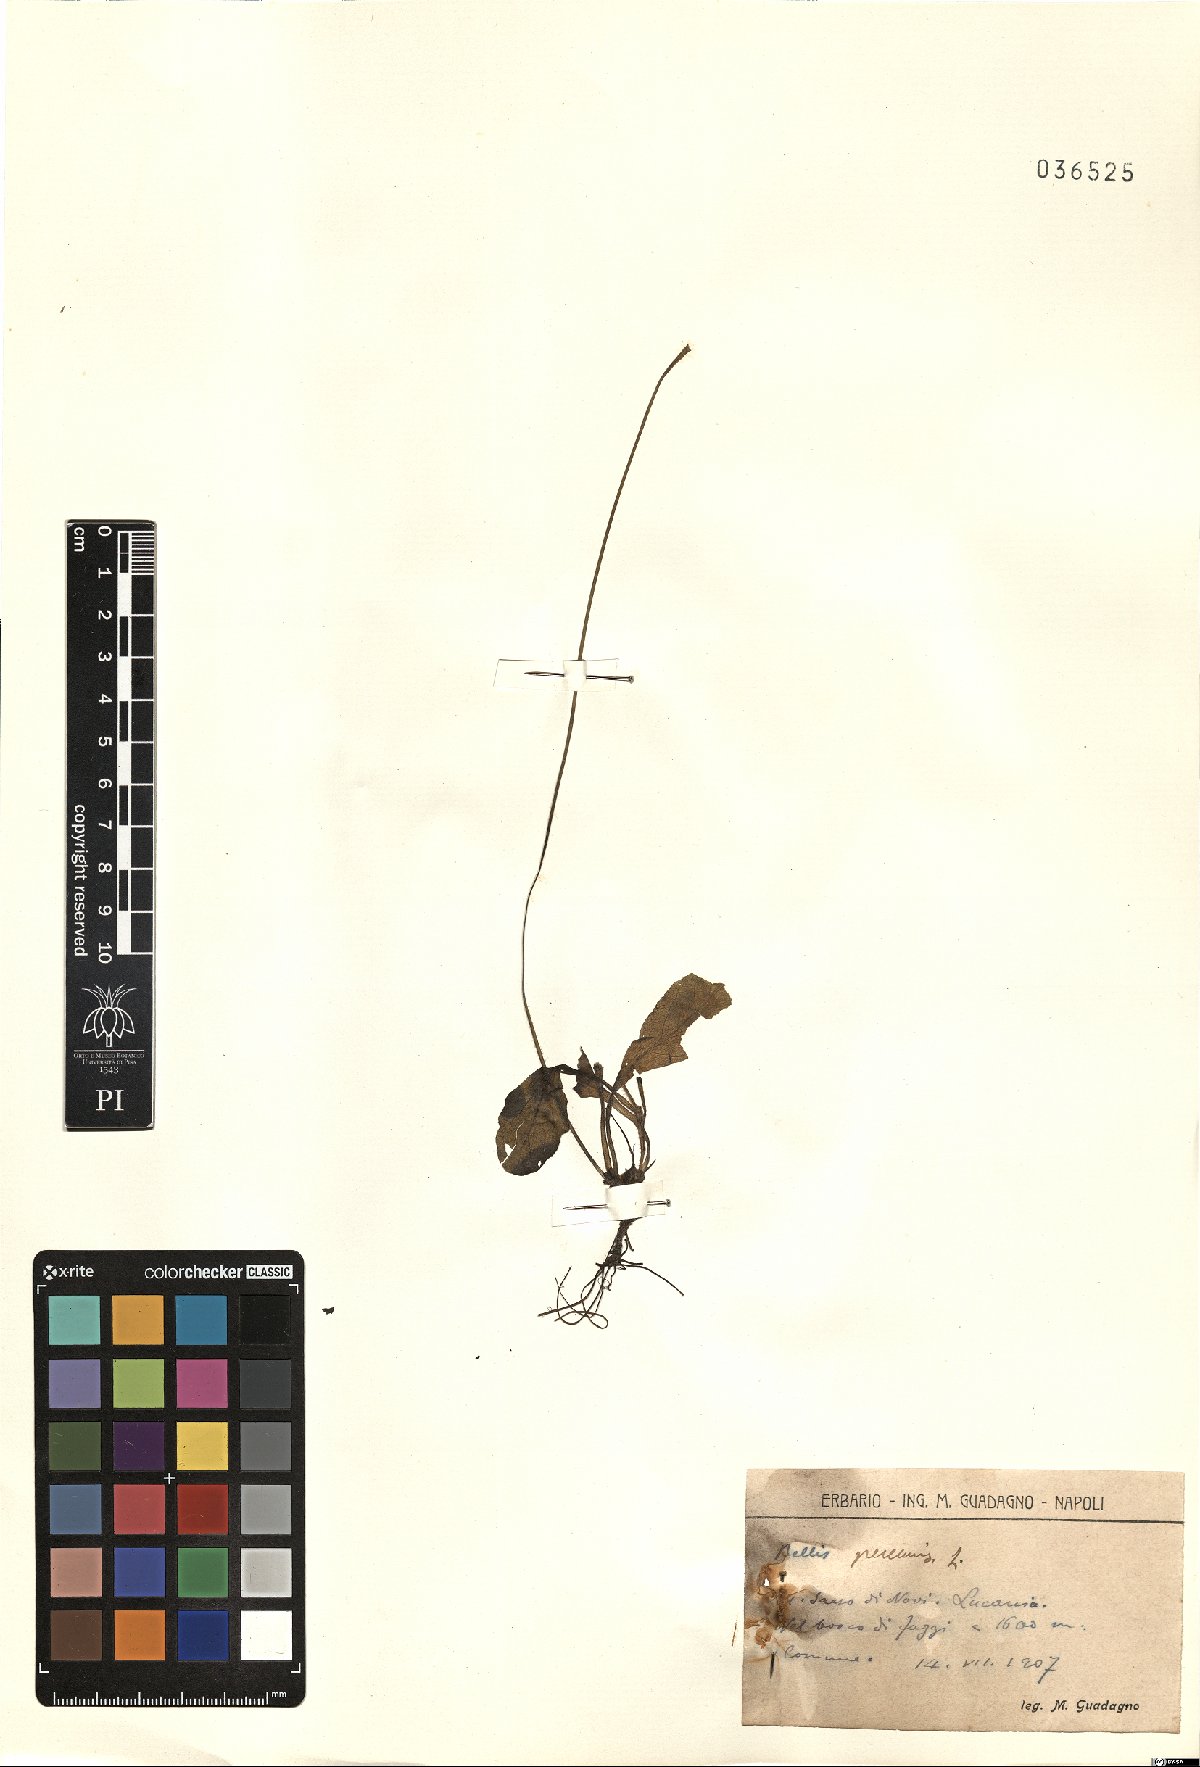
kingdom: Plantae
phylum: Tracheophyta
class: Magnoliopsida
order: Asterales
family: Asteraceae
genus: Bellis
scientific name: Bellis perennis
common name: Lawndaisy
